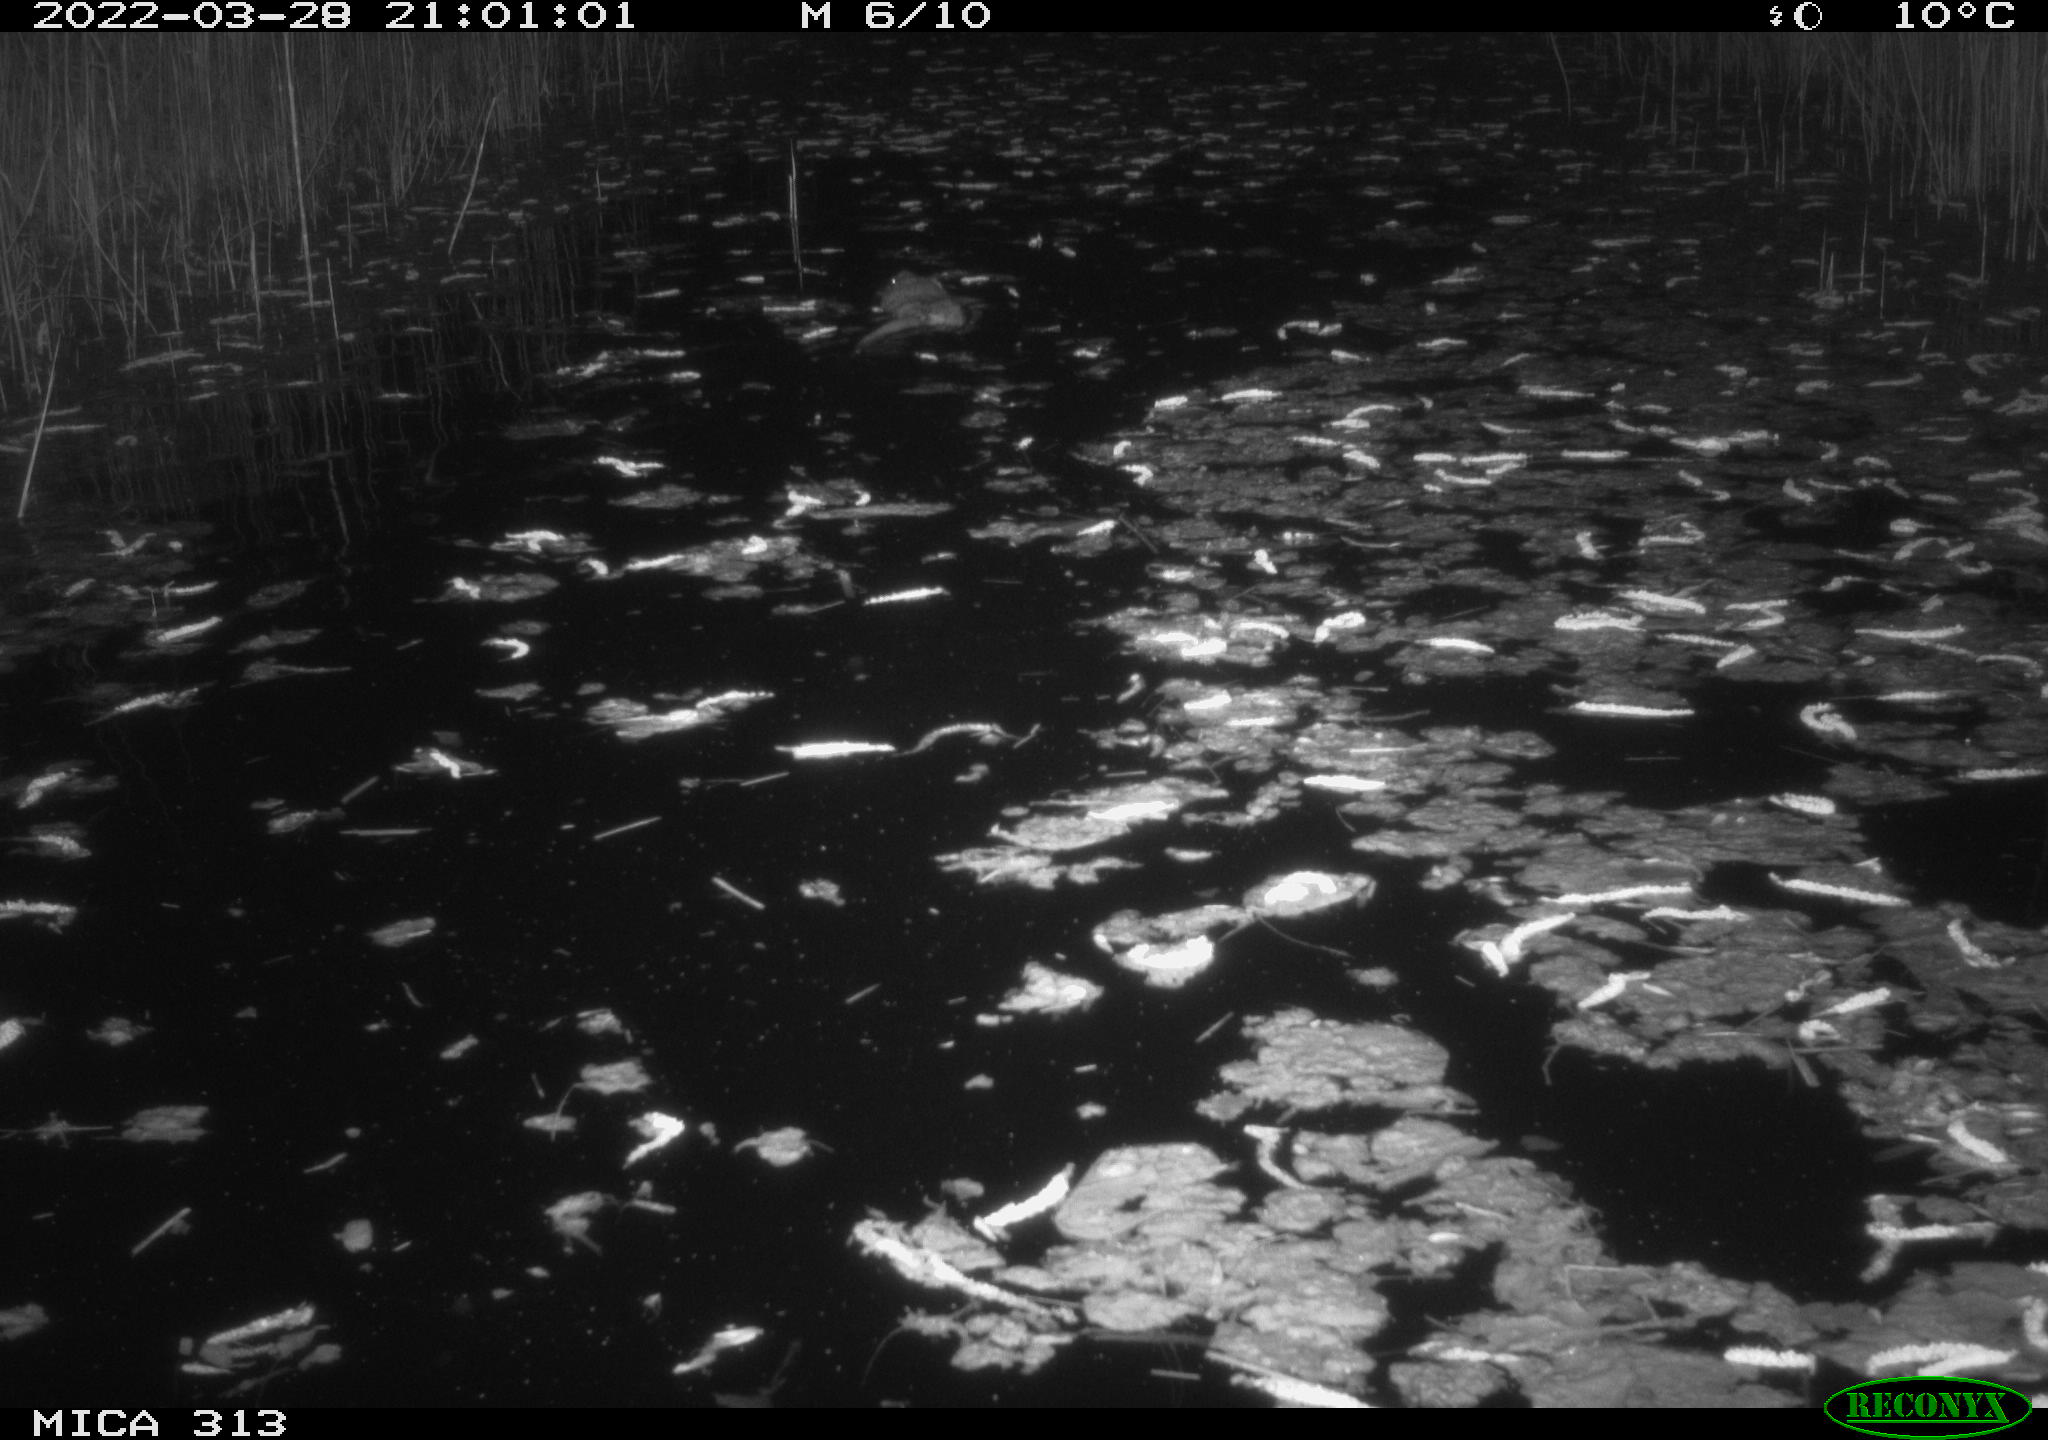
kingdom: Animalia
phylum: Chordata
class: Mammalia
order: Rodentia
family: Cricetidae
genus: Ondatra
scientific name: Ondatra zibethicus
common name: Muskrat
